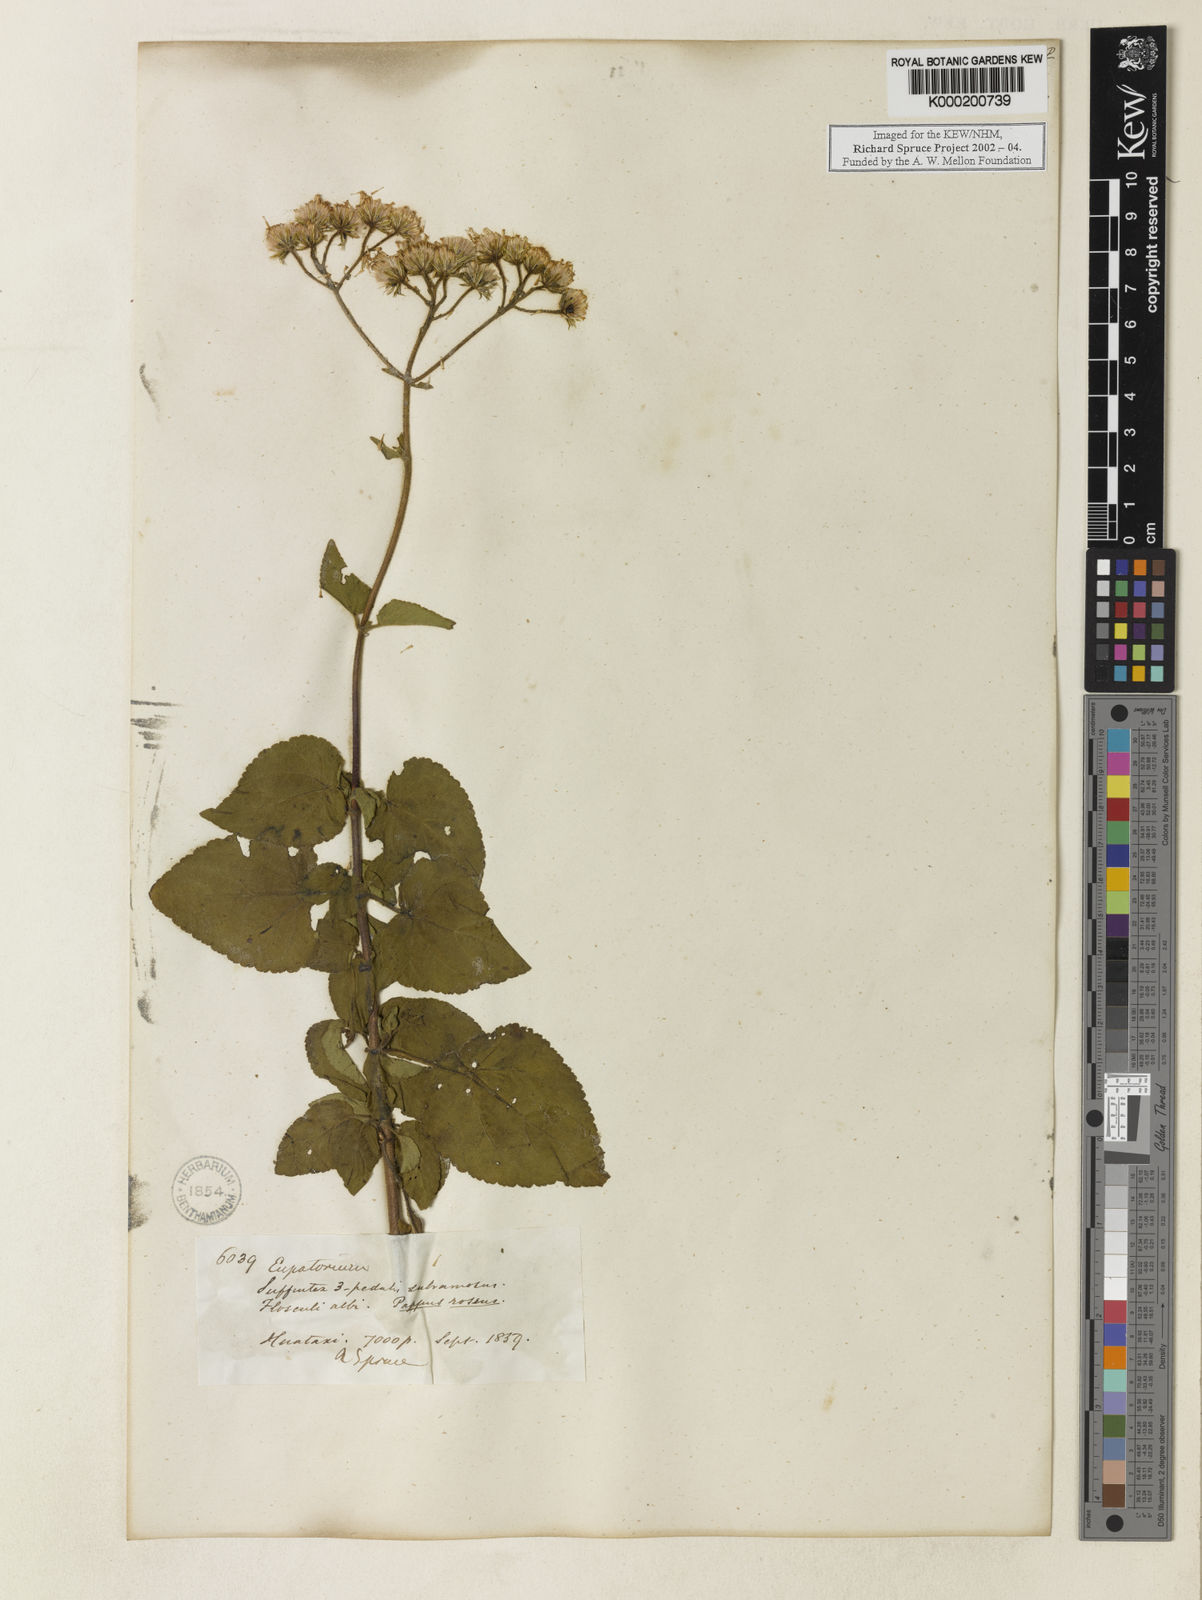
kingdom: Plantae
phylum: Tracheophyta
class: Magnoliopsida
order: Asterales
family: Asteraceae
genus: Eupatorium
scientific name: Eupatorium
